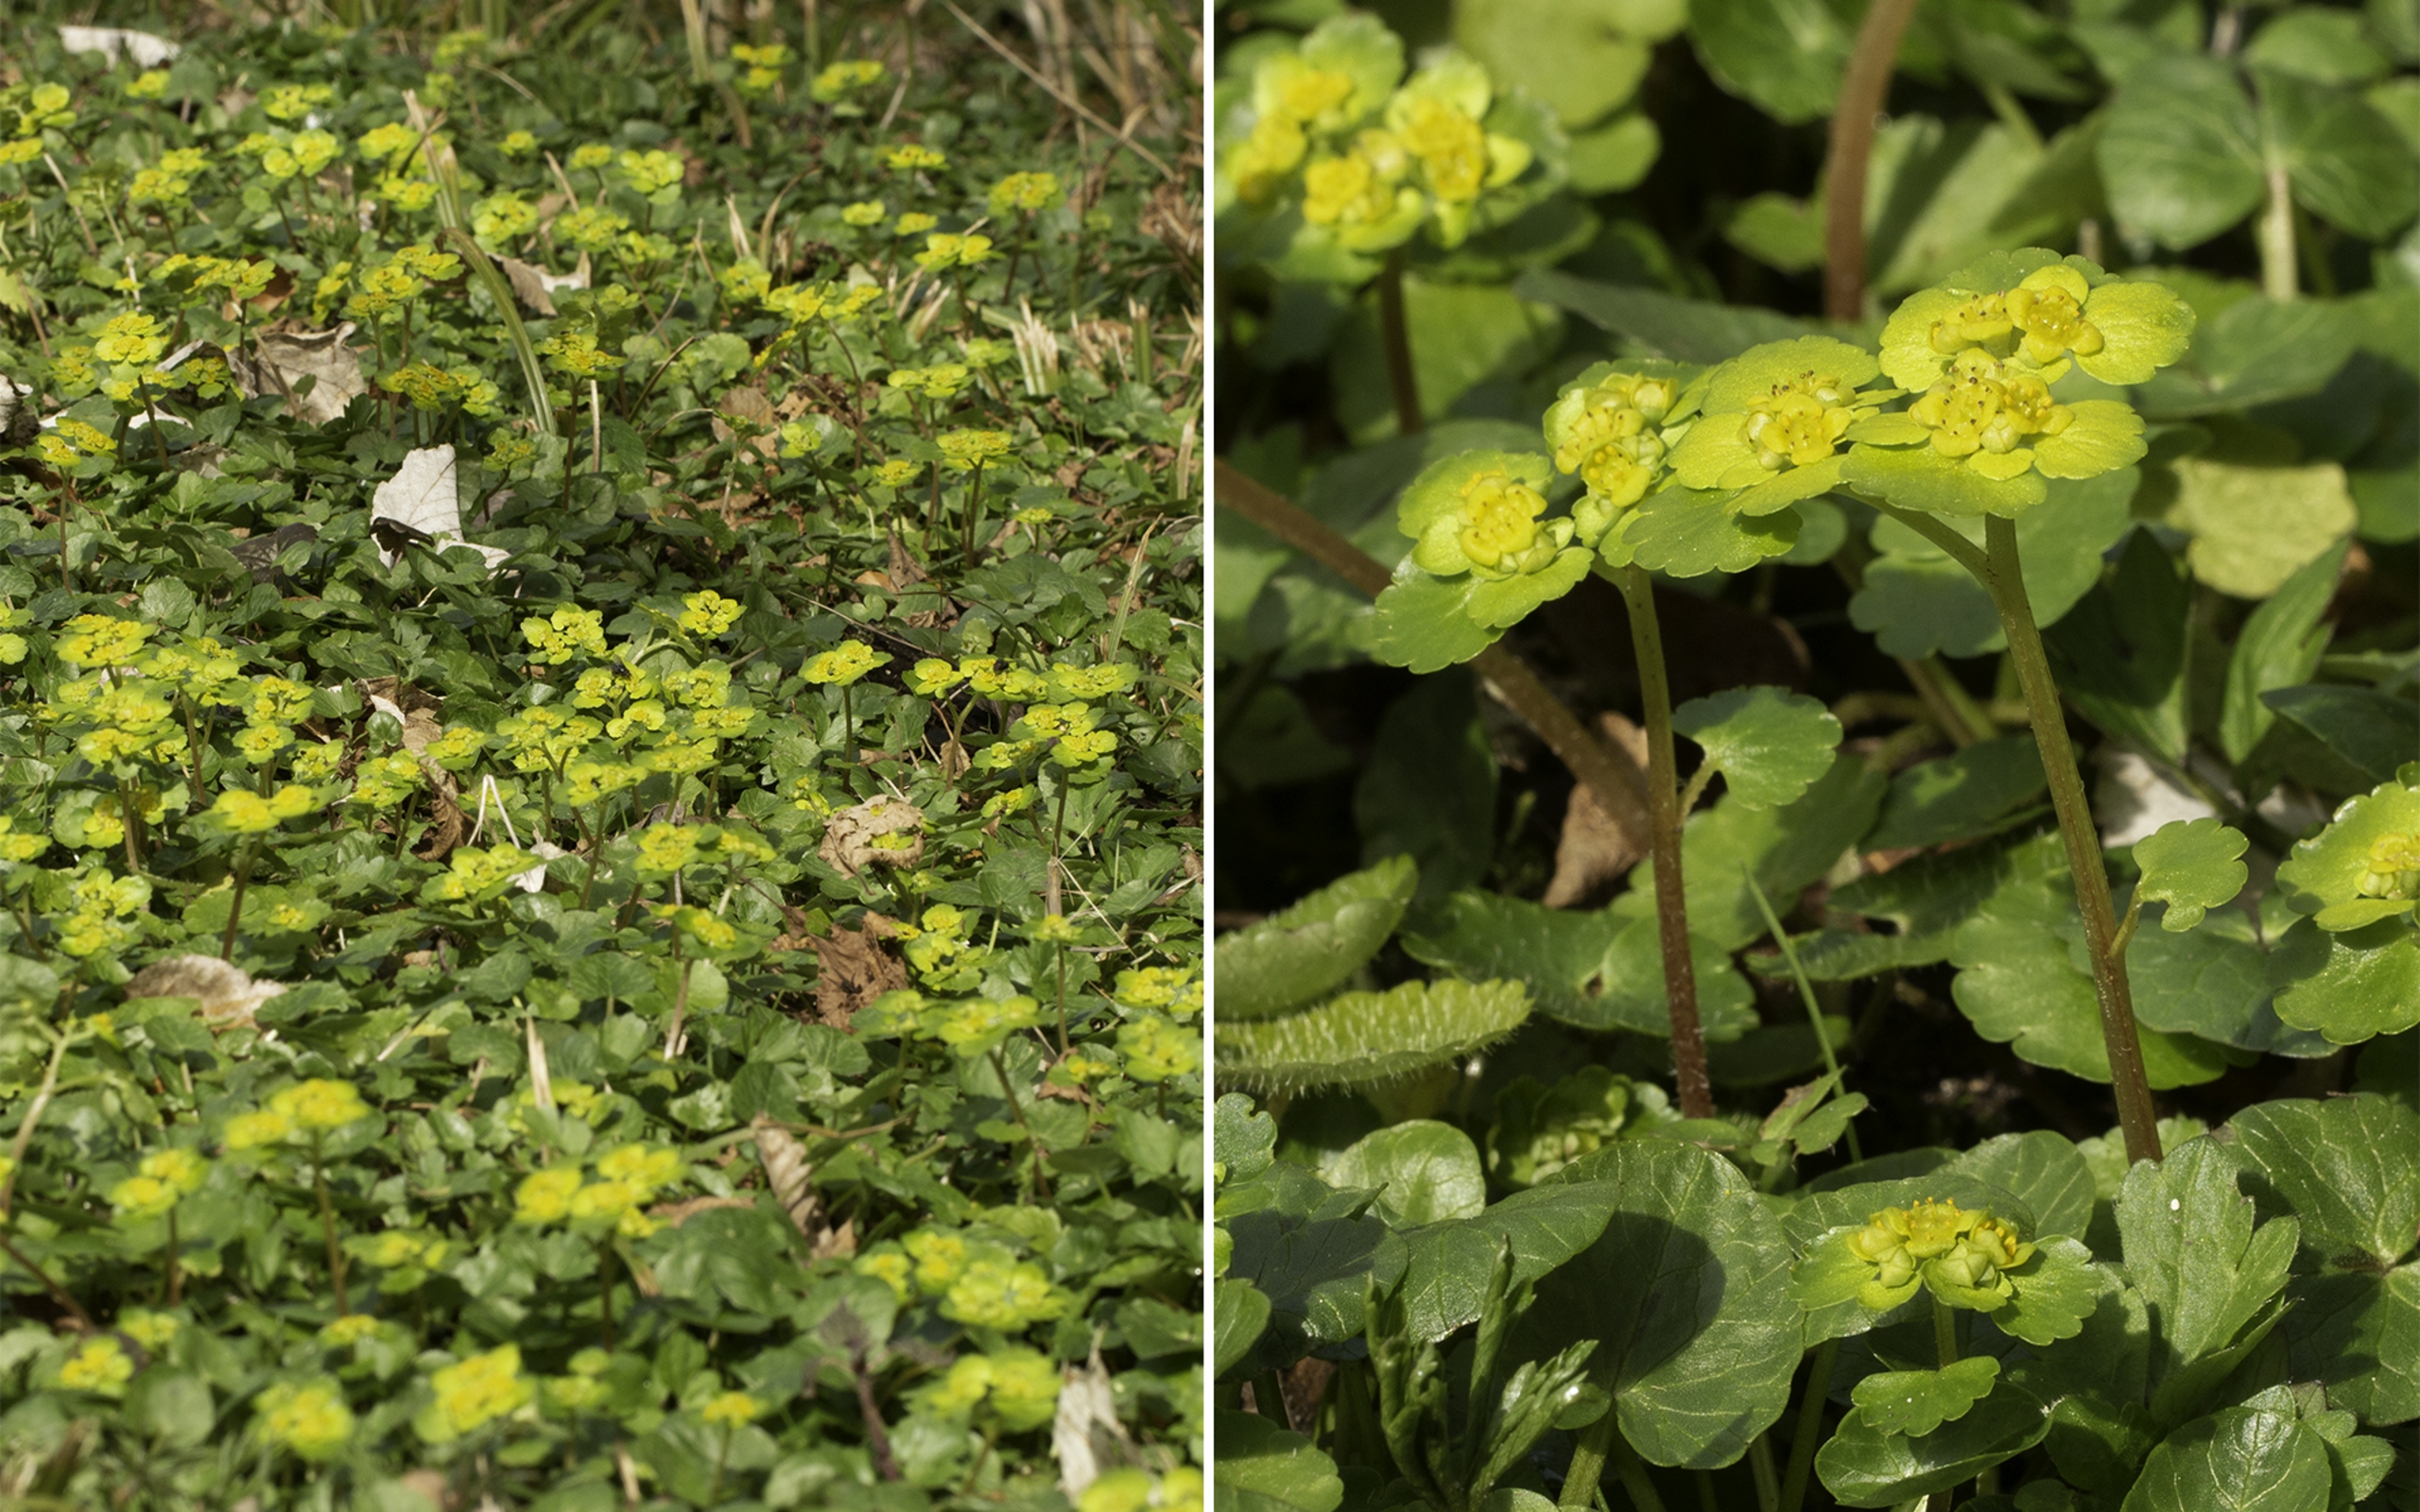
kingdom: Plantae
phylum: Tracheophyta
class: Magnoliopsida
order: Saxifragales
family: Saxifragaceae
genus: Chrysosplenium
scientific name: Chrysosplenium alternifolium
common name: Almindelig milturt
